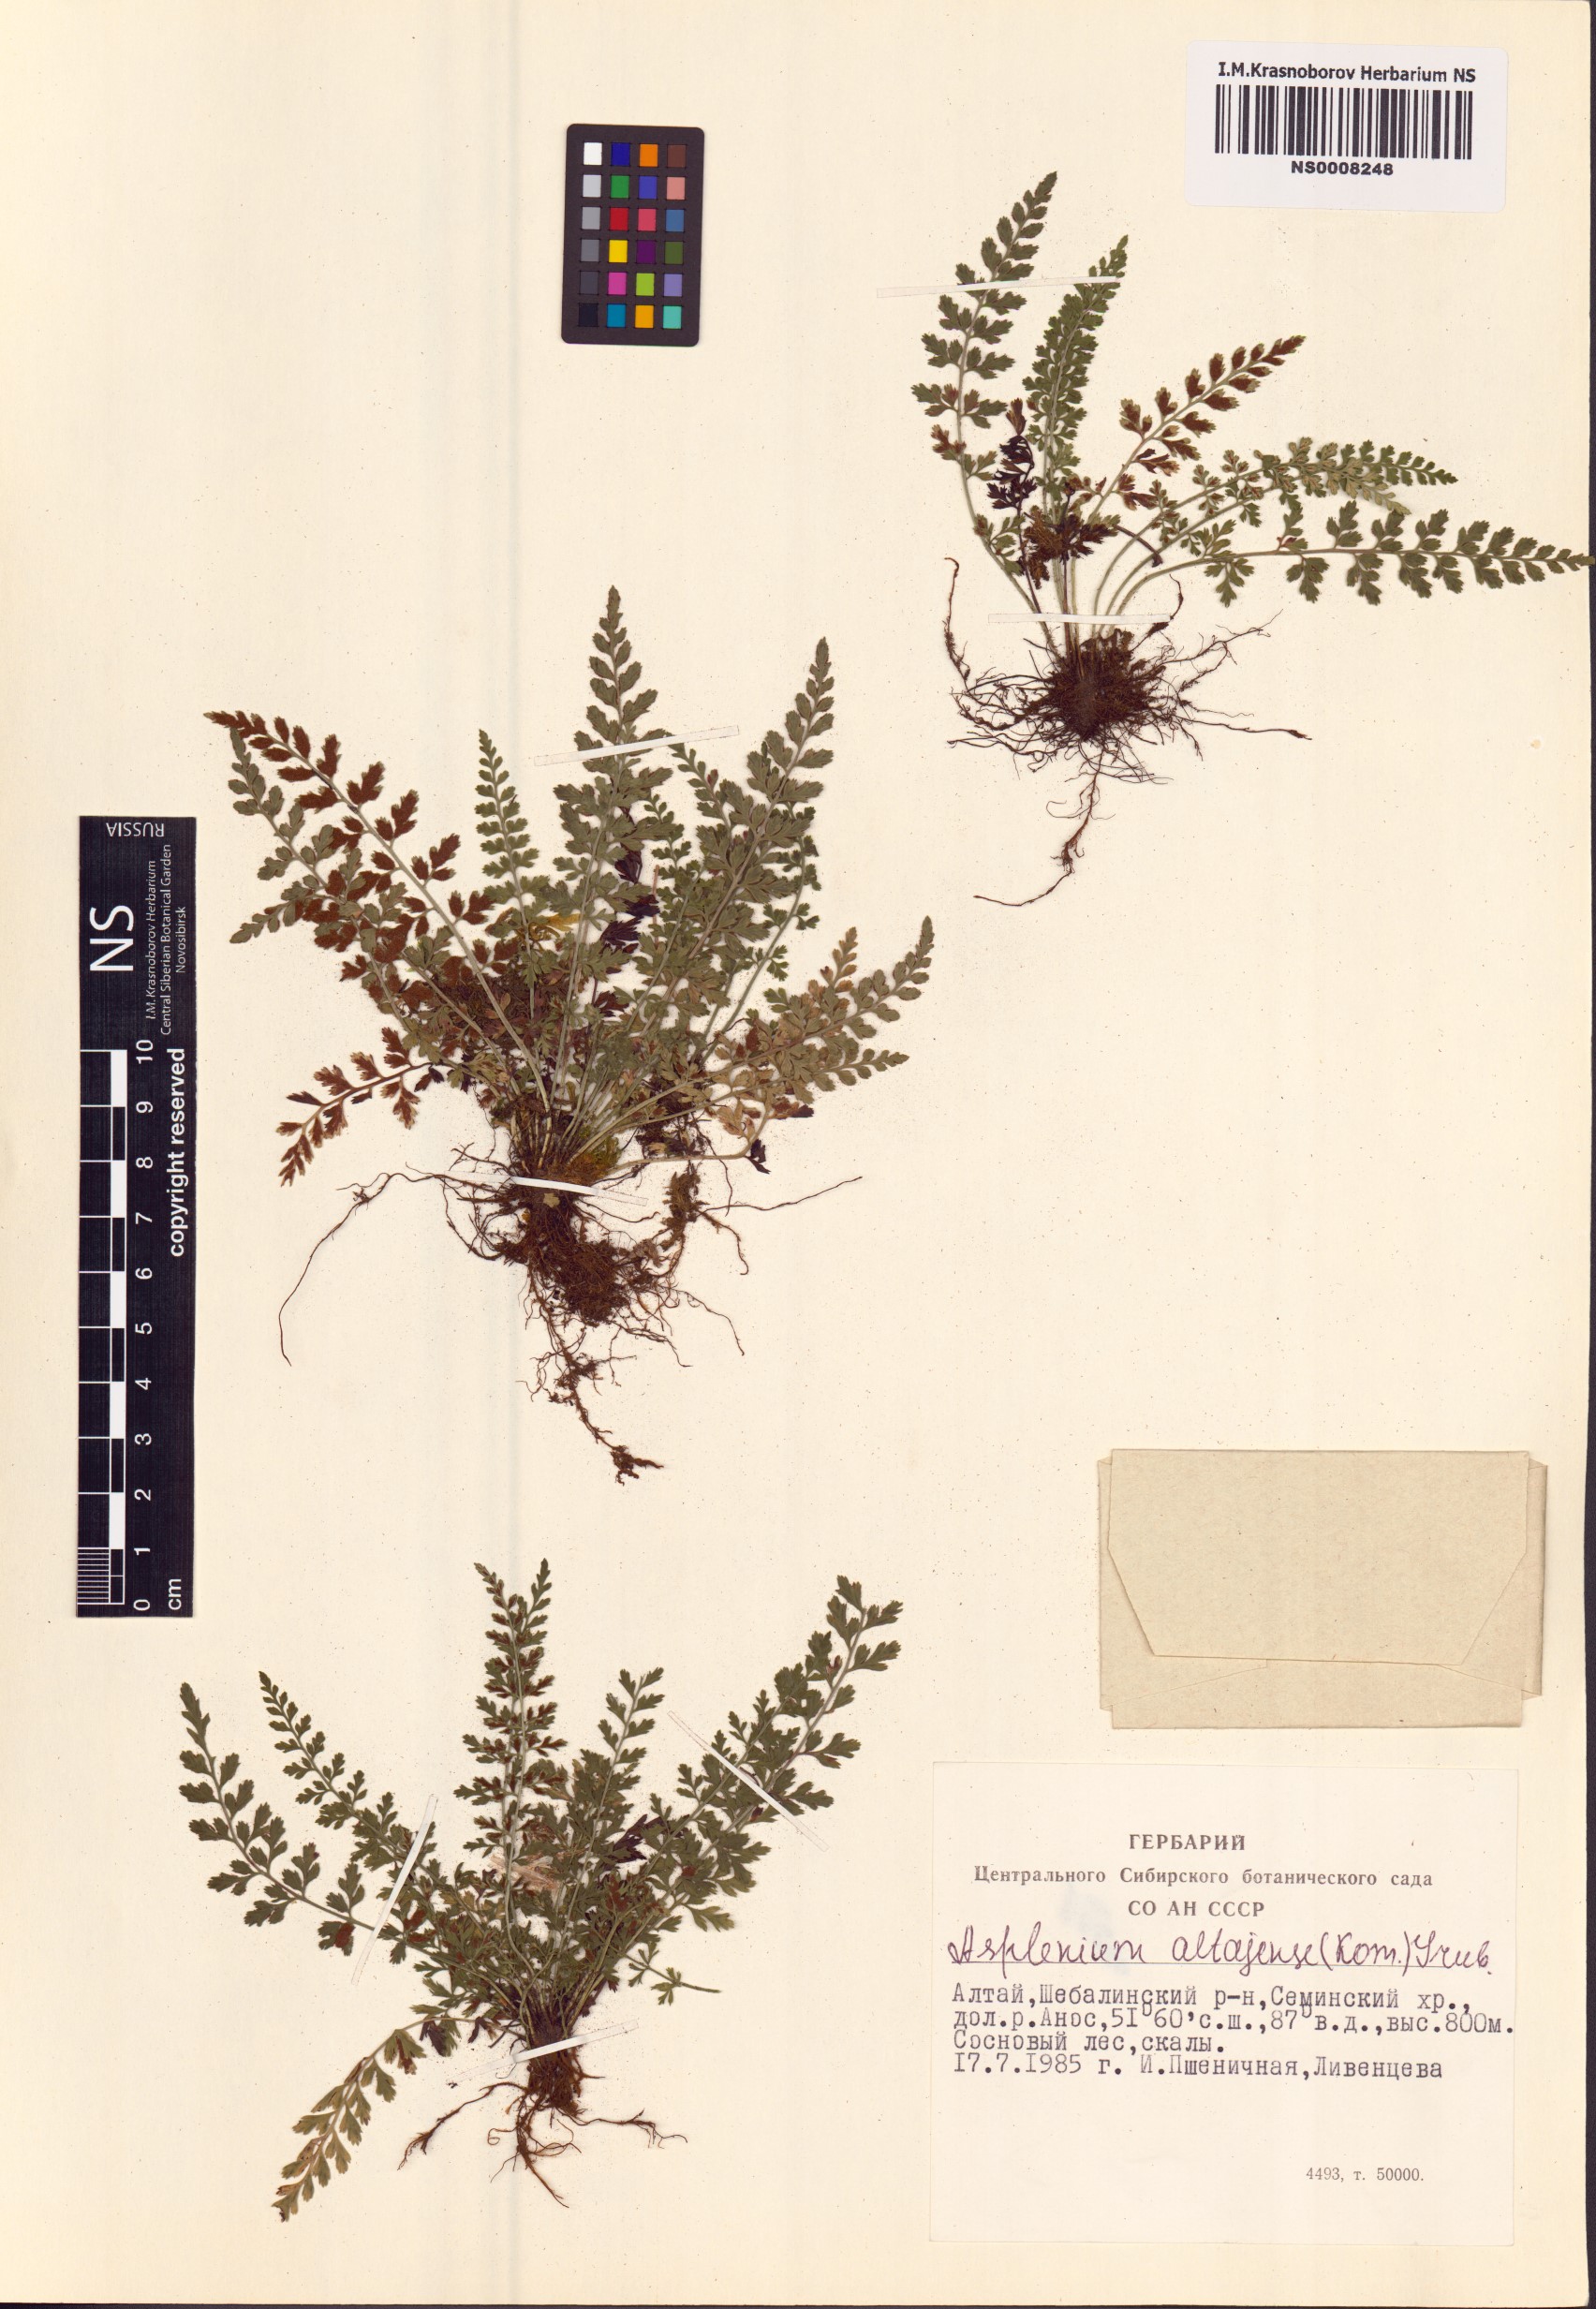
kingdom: Plantae
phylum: Tracheophyta
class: Polypodiopsida
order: Polypodiales
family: Aspleniaceae
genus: Asplenium
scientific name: Asplenium altajense
